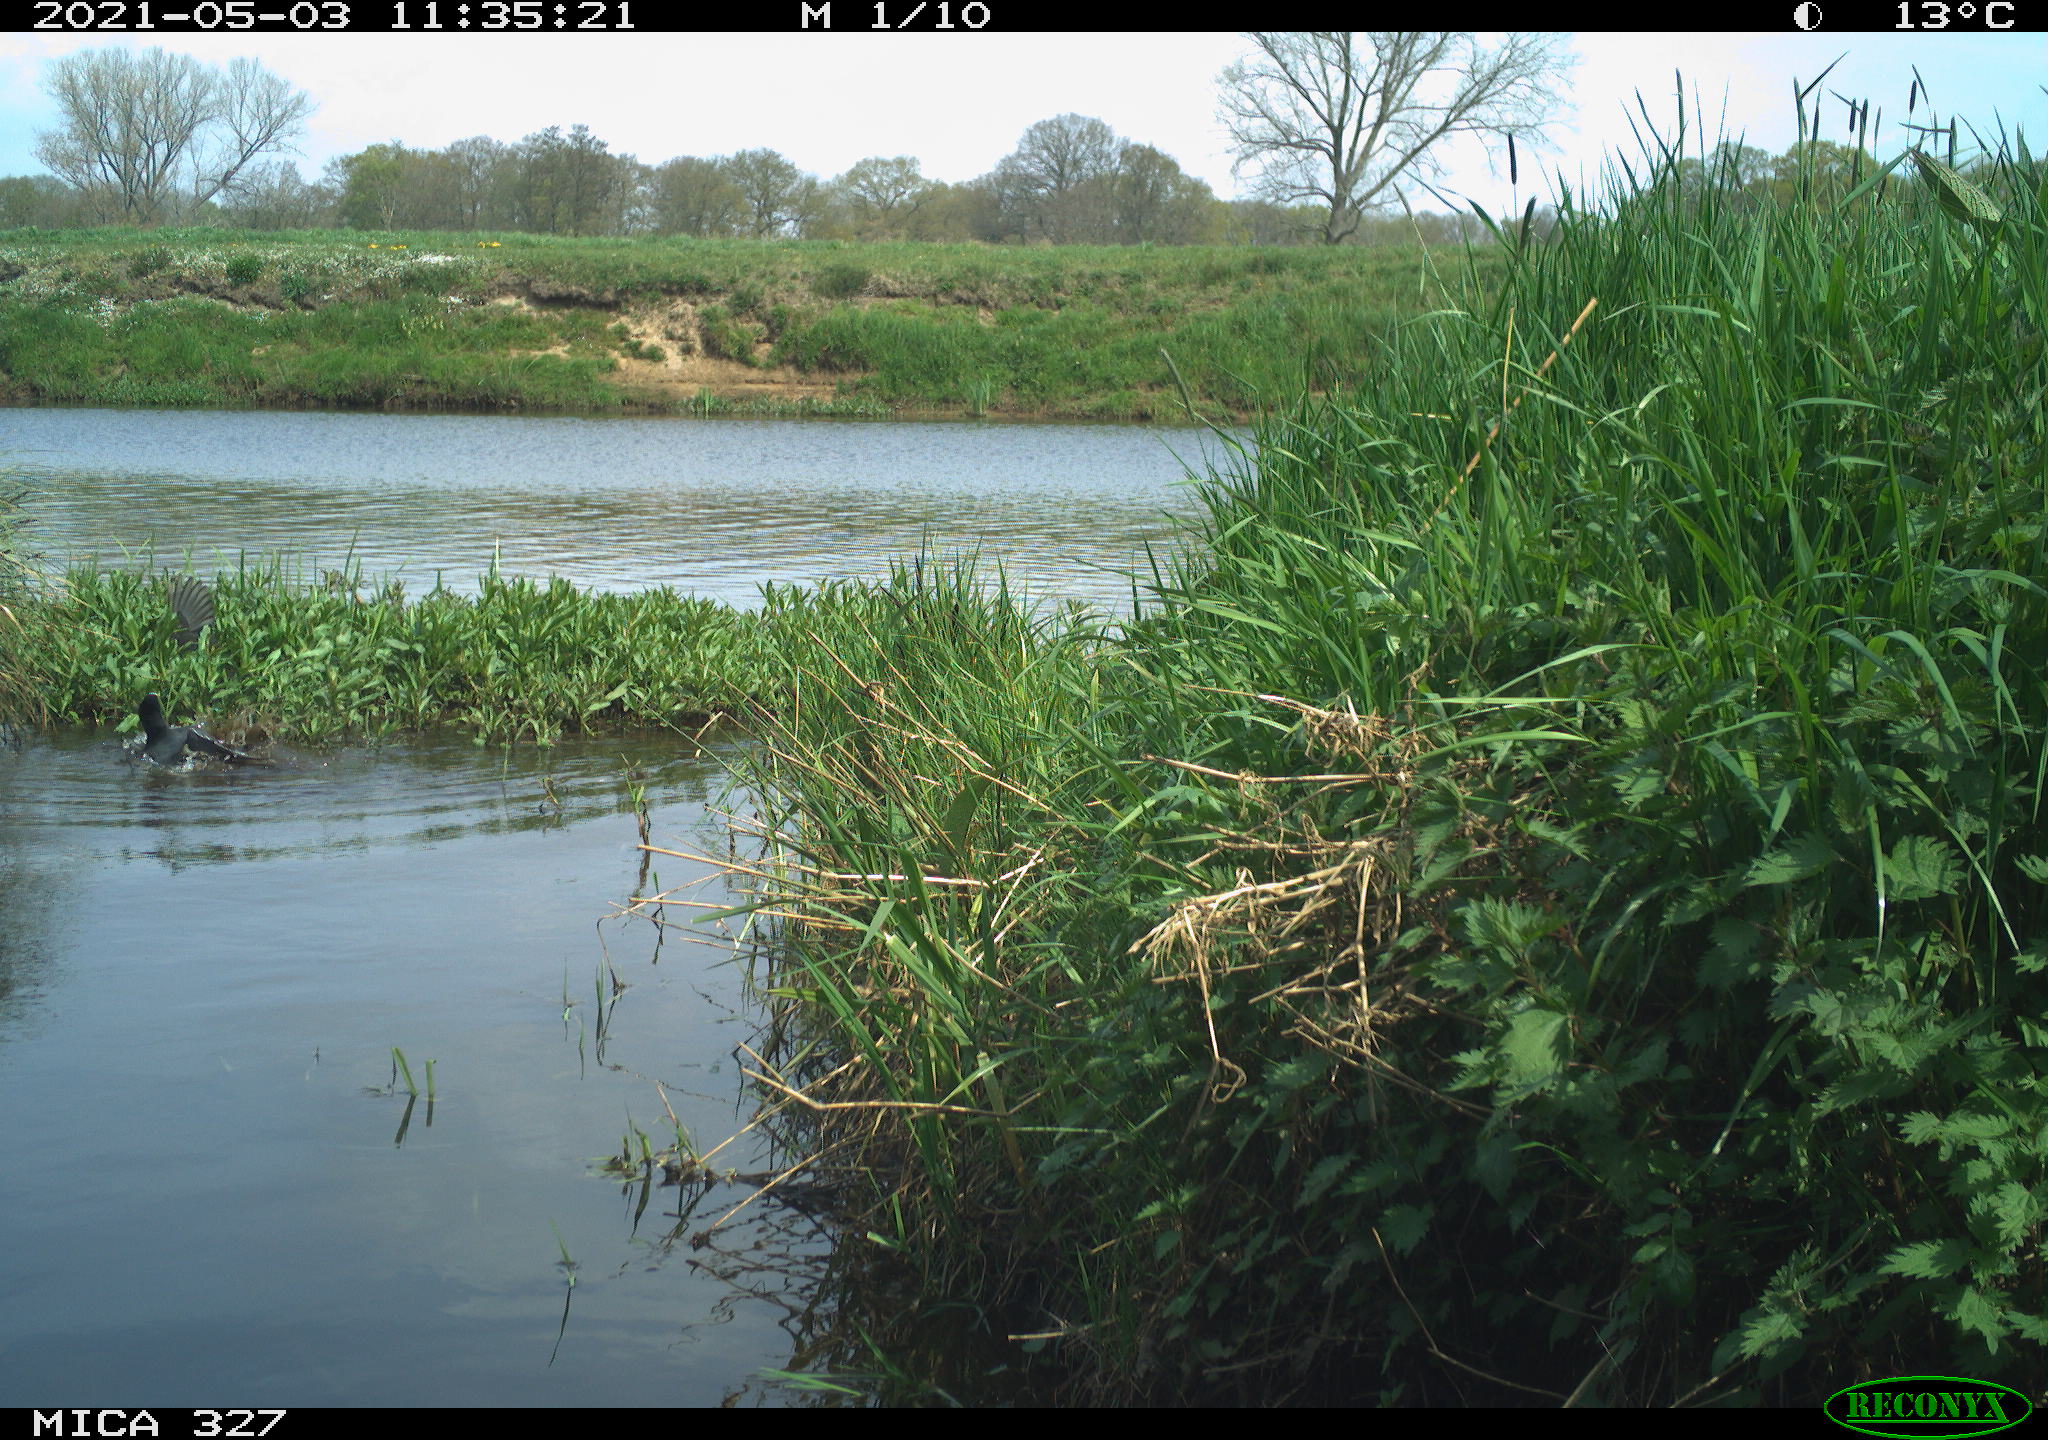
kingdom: Animalia
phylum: Chordata
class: Aves
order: Gruiformes
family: Rallidae
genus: Gallinula
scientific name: Gallinula chloropus
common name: Common moorhen
